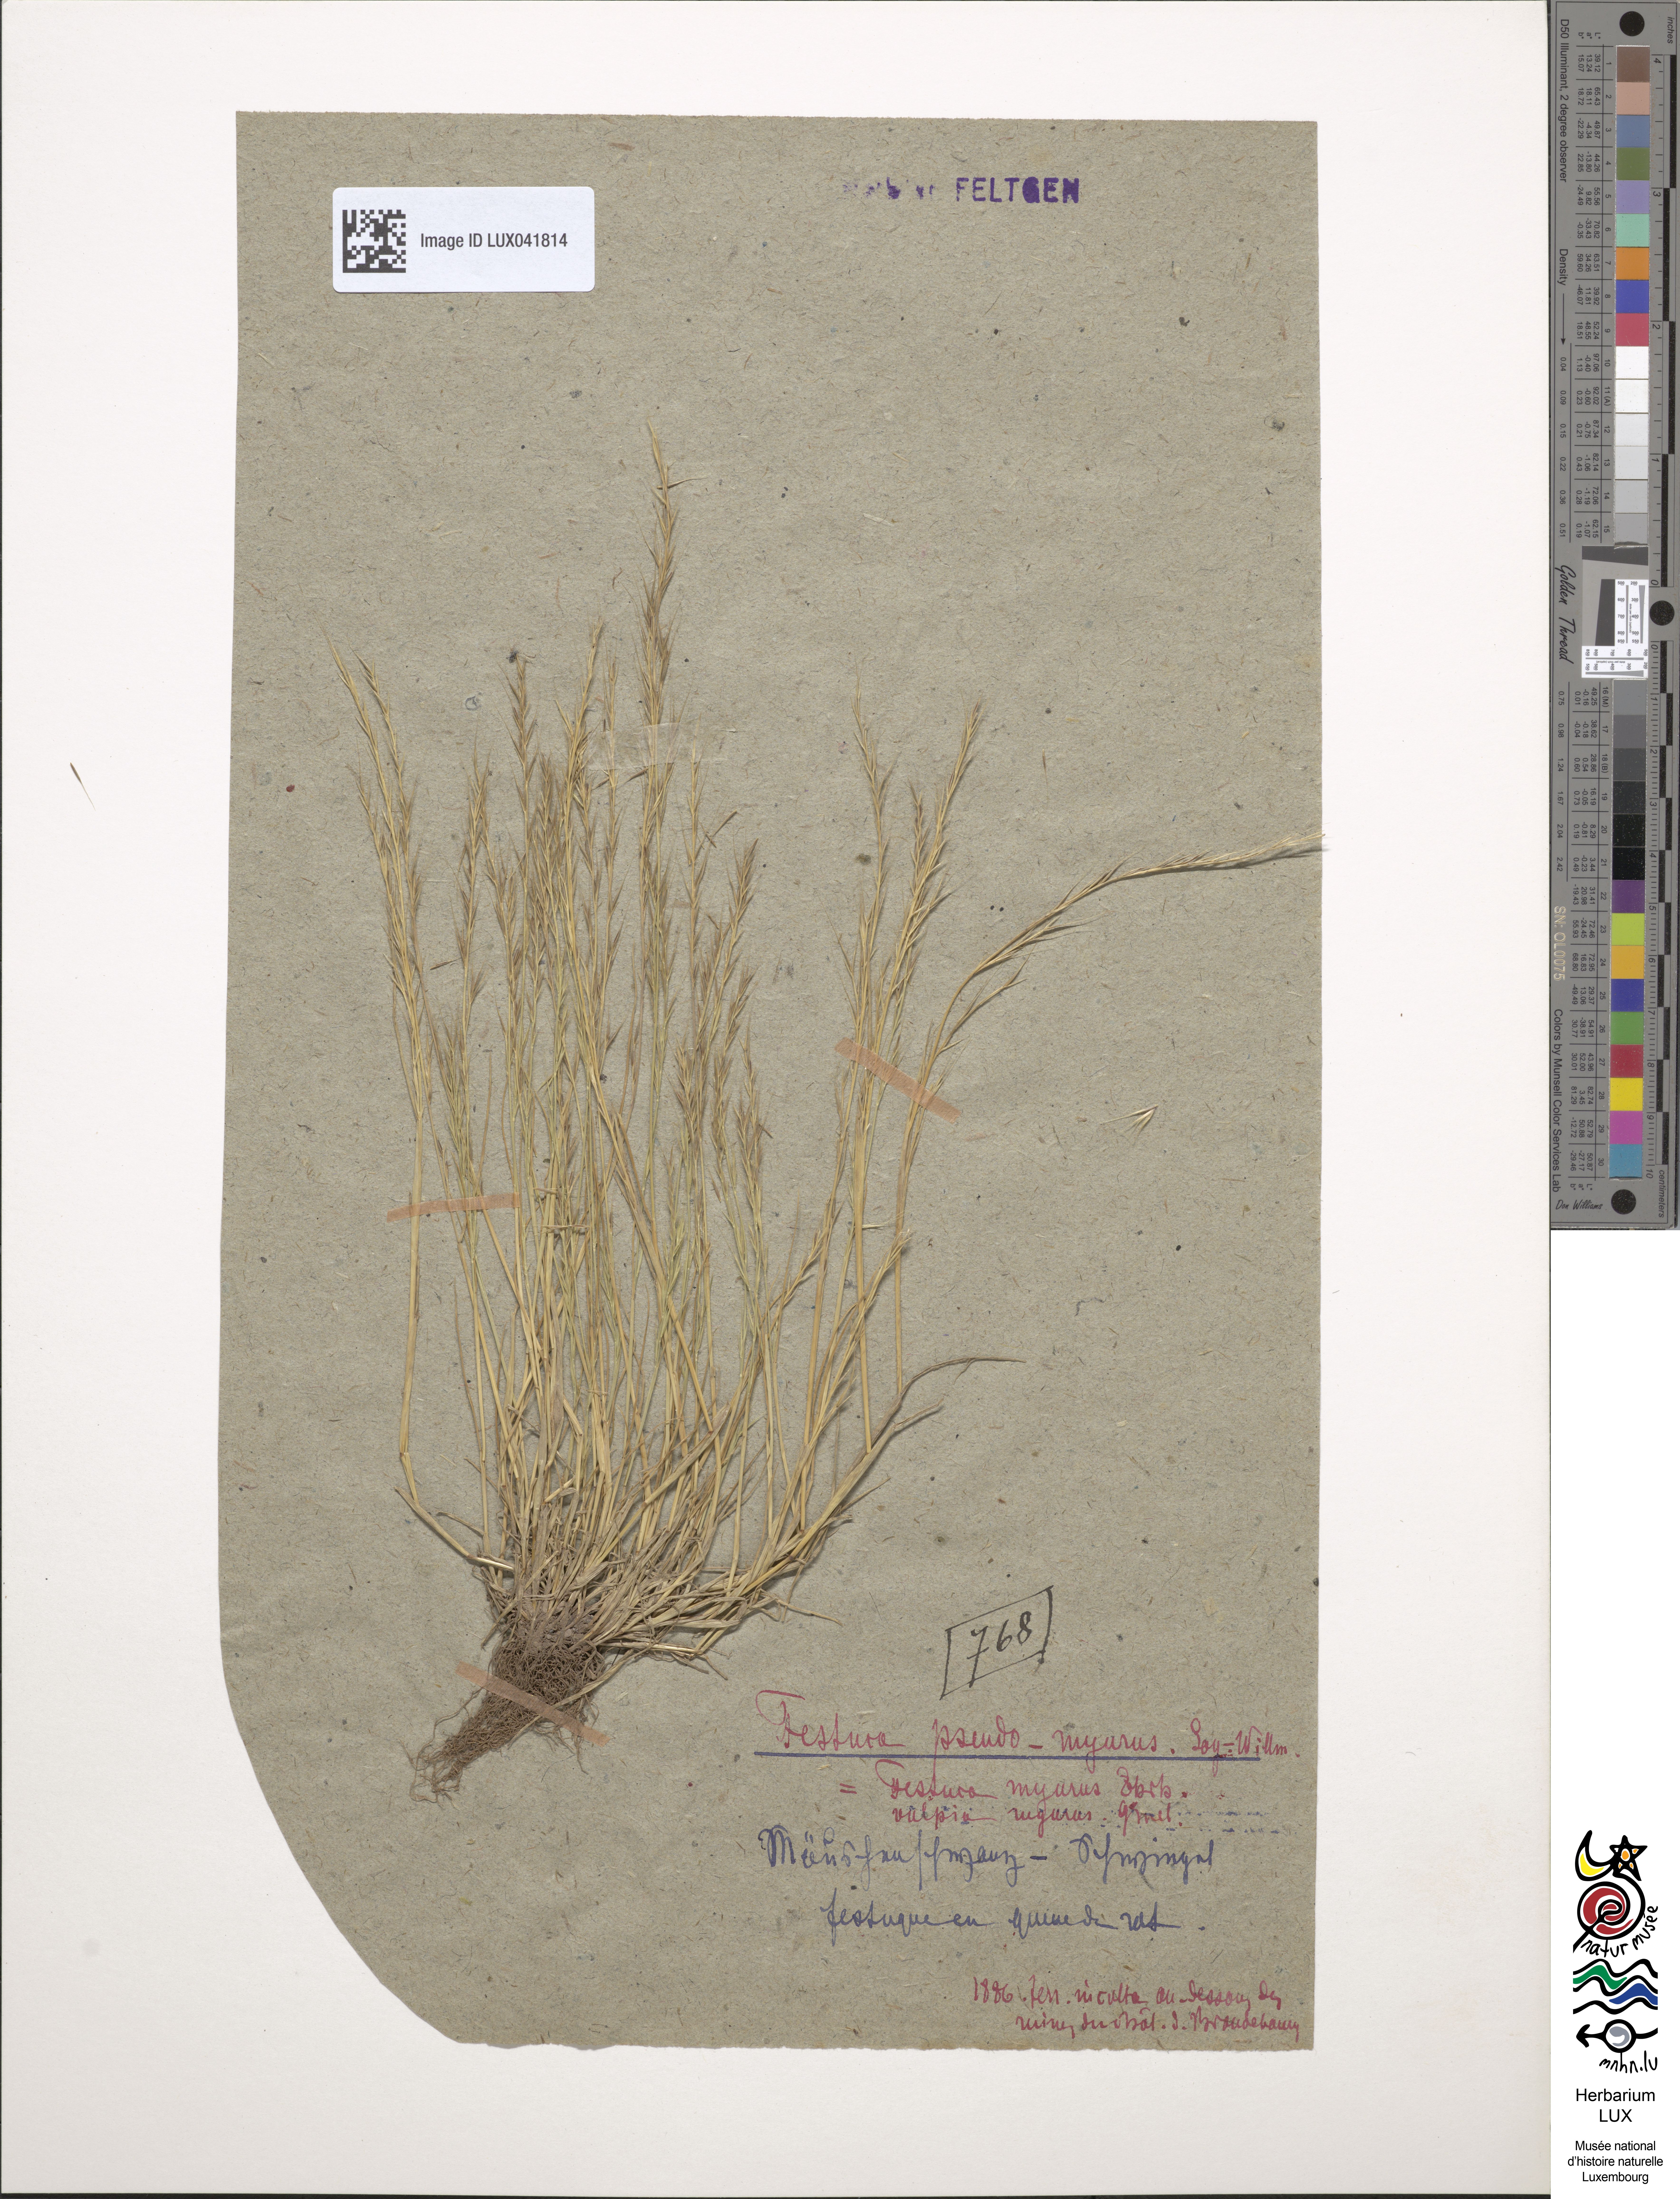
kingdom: Plantae
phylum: Tracheophyta
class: Liliopsida
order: Poales
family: Poaceae
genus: Festuca
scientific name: Festuca myuros
